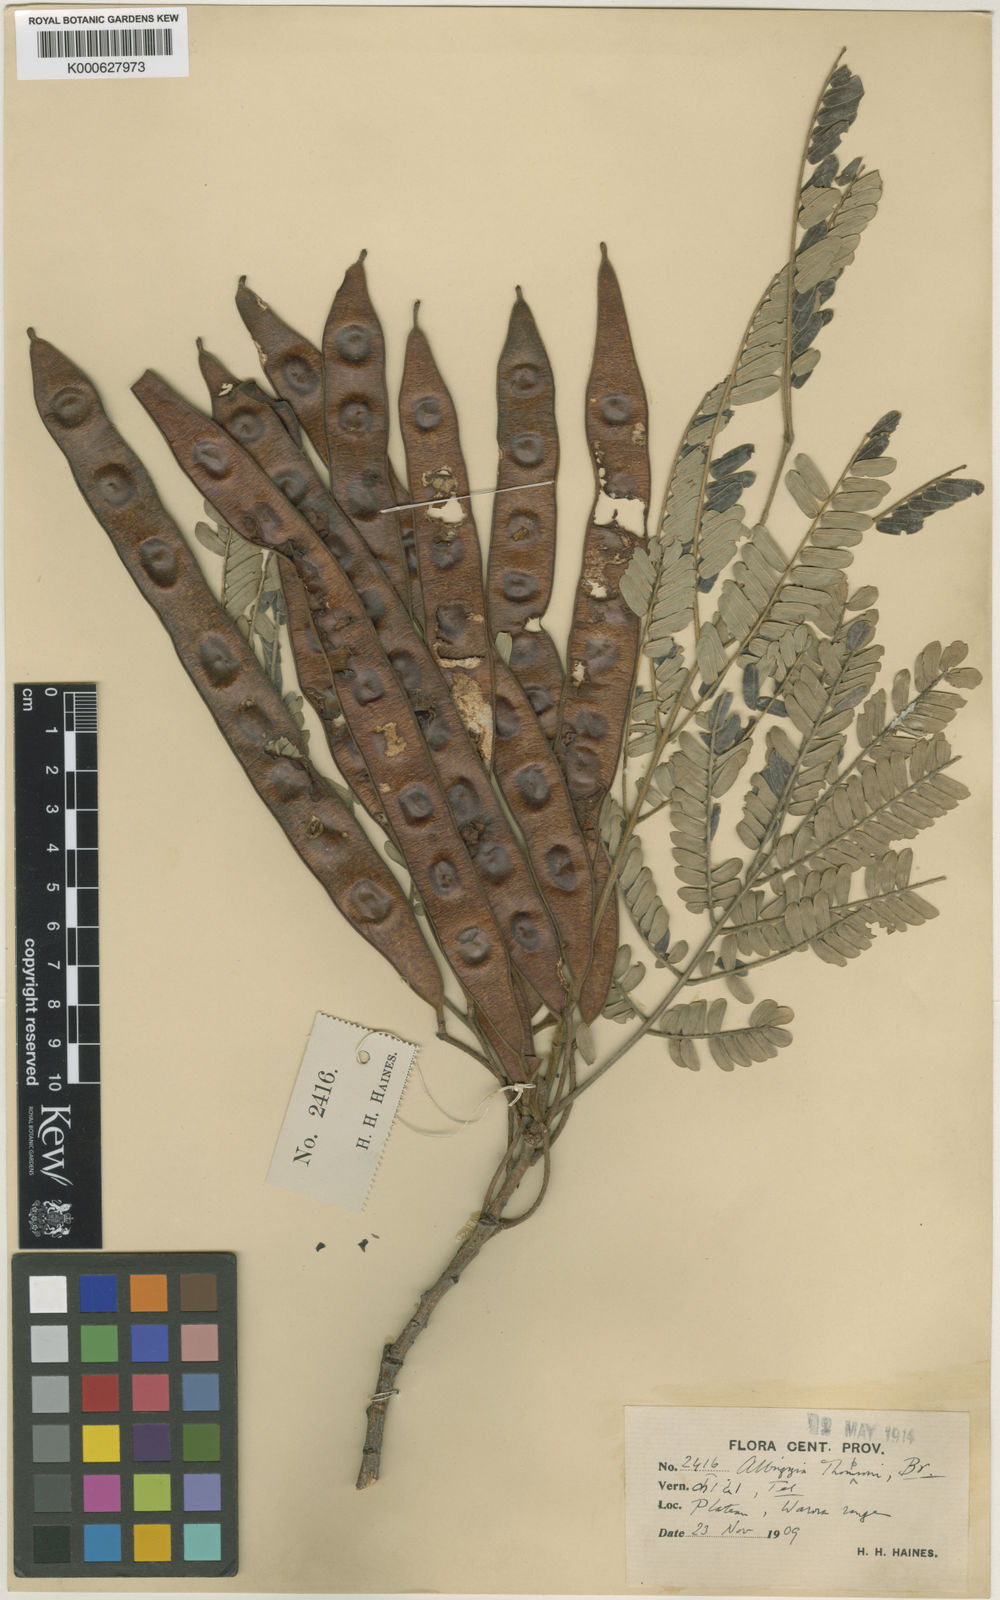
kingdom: Plantae
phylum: Tracheophyta
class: Magnoliopsida
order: Fabales
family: Fabaceae
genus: Albizia
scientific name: Albizia thompsonii
